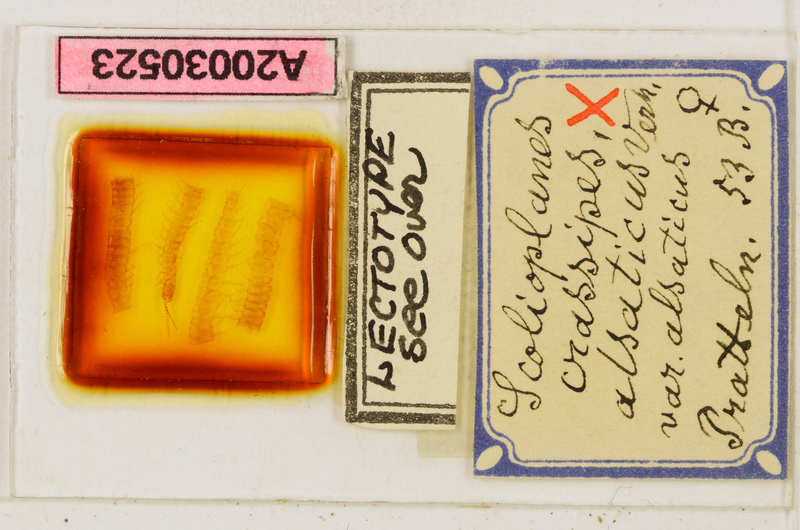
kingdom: Animalia
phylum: Arthropoda
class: Chilopoda
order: Geophilomorpha
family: Linotaeniidae
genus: Strigamia
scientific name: Strigamia crassipes
